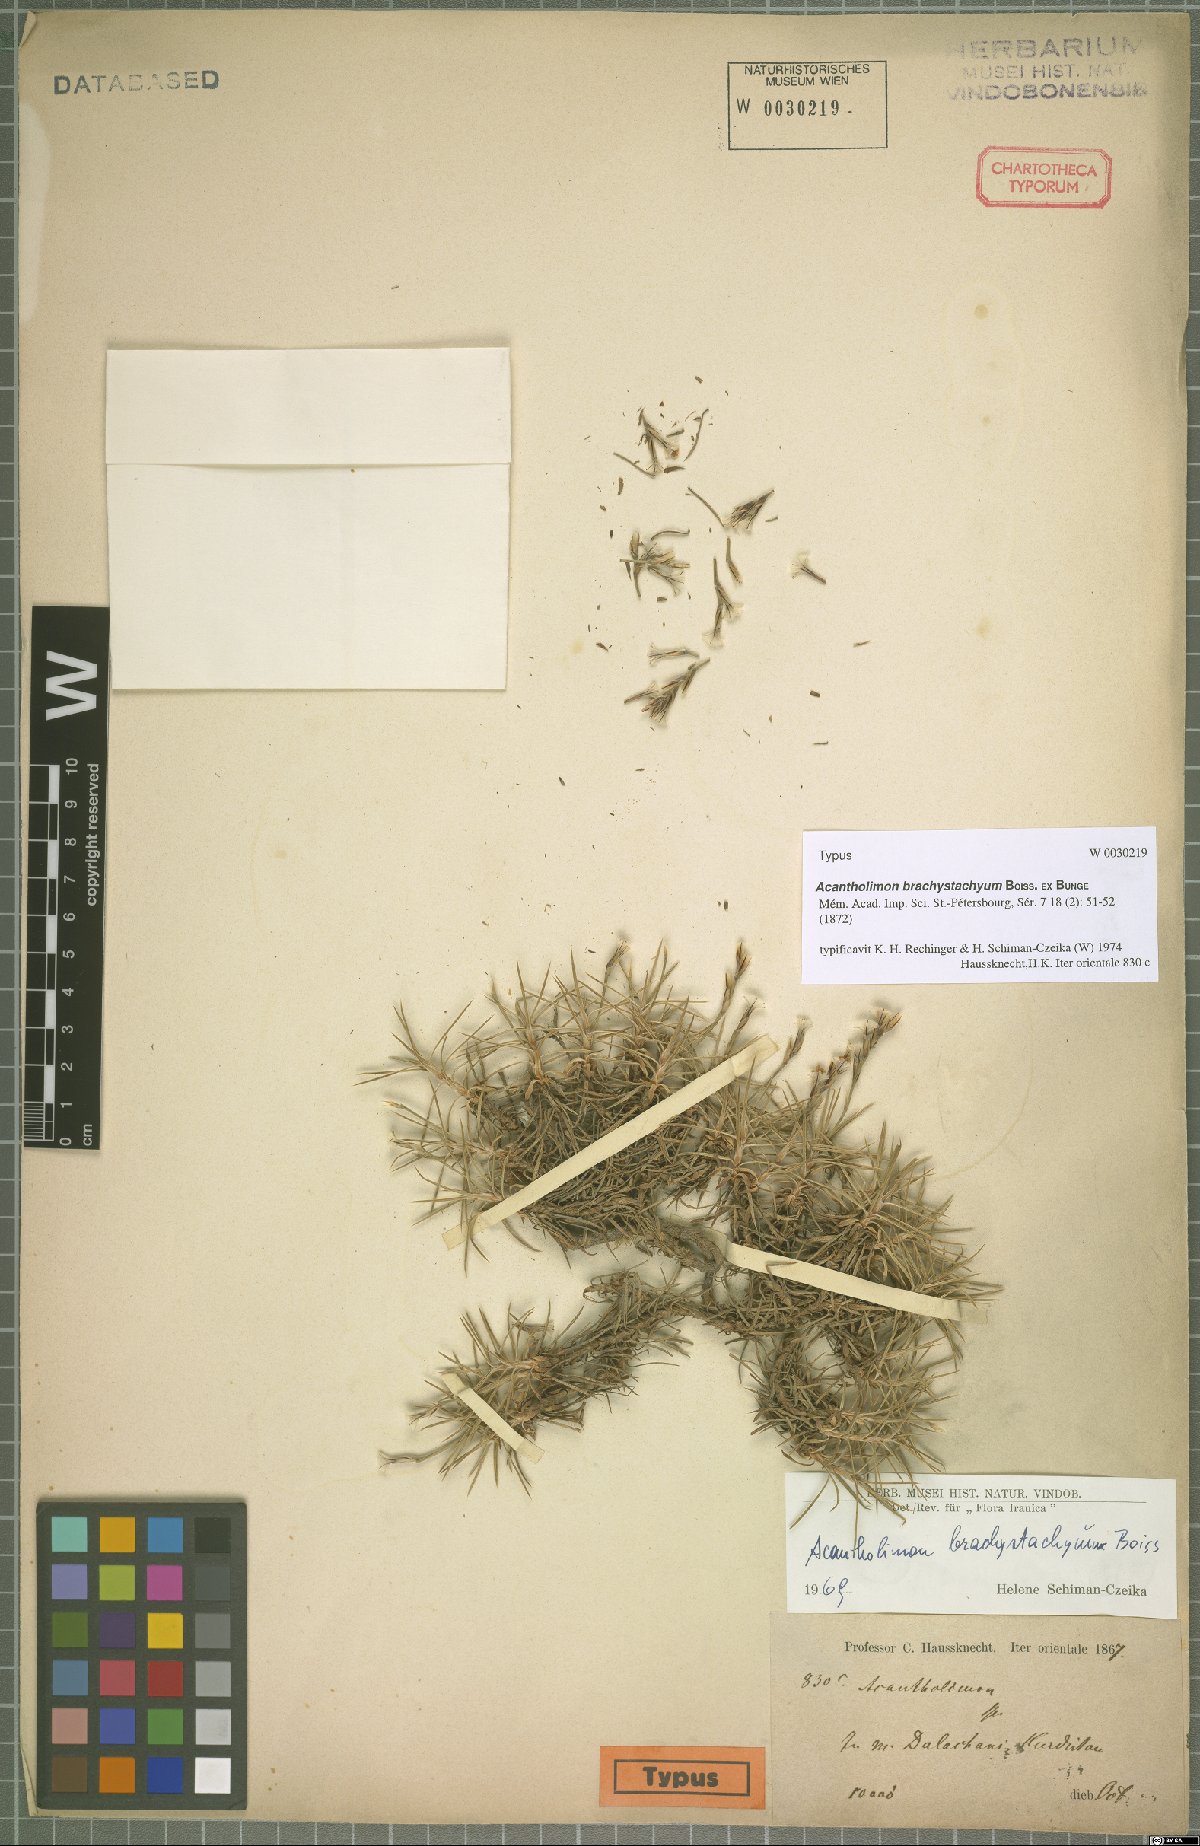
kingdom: Plantae
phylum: Tracheophyta
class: Magnoliopsida
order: Caryophyllales
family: Plumbaginaceae
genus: Acantholimon
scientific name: Acantholimon brachystachyum
